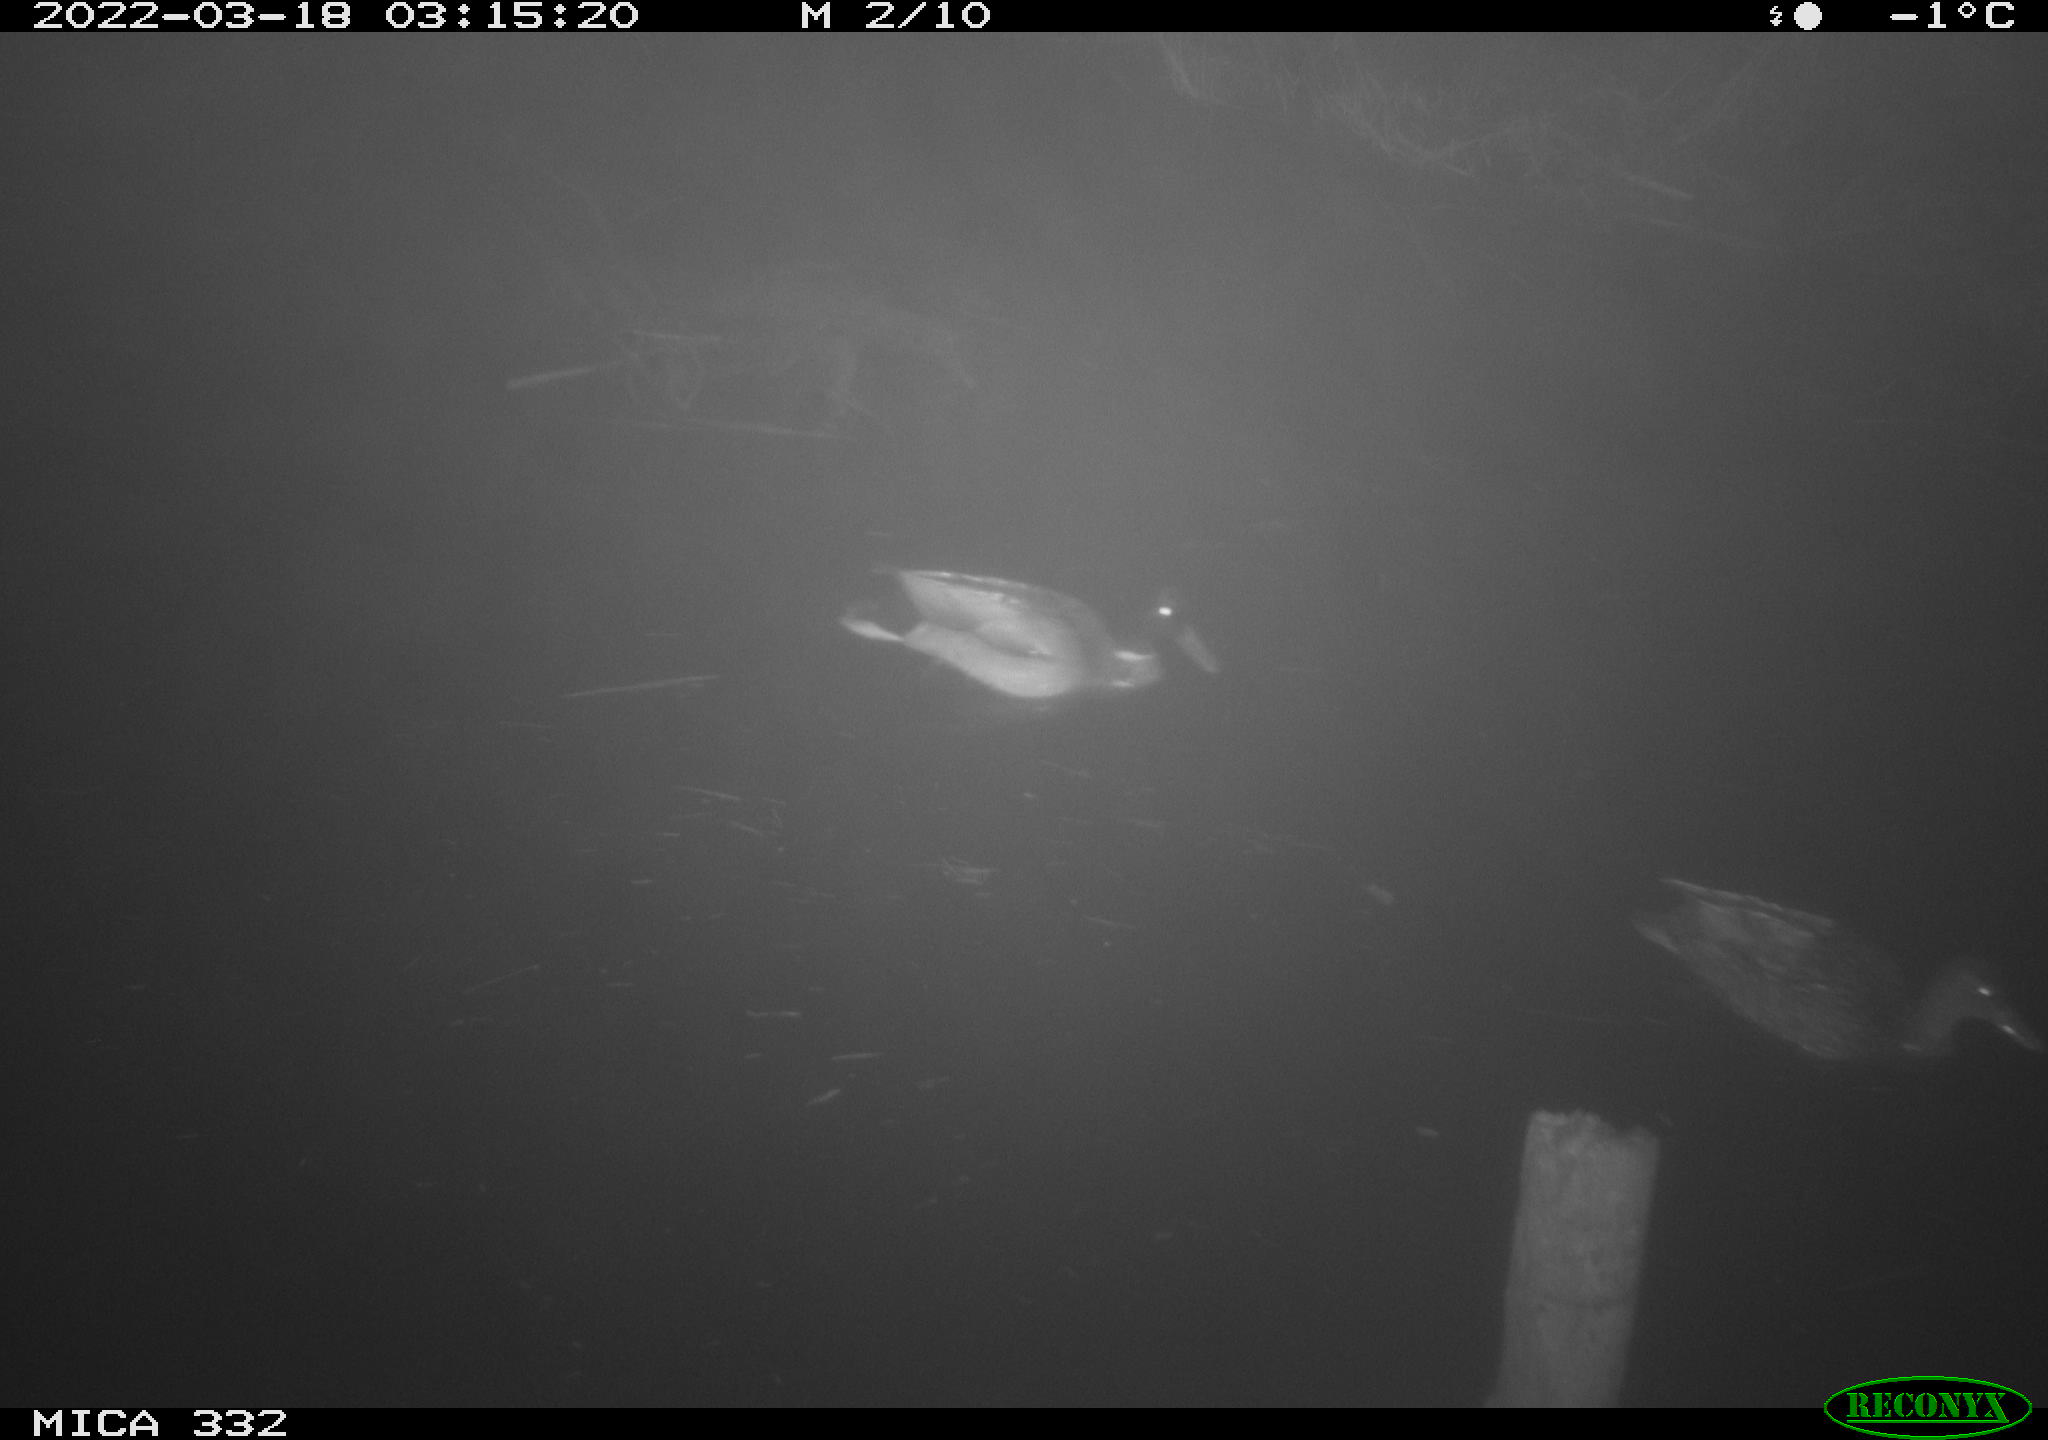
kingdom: Animalia
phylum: Chordata
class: Aves
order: Anseriformes
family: Anatidae
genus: Anas
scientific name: Anas platyrhynchos
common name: Mallard
